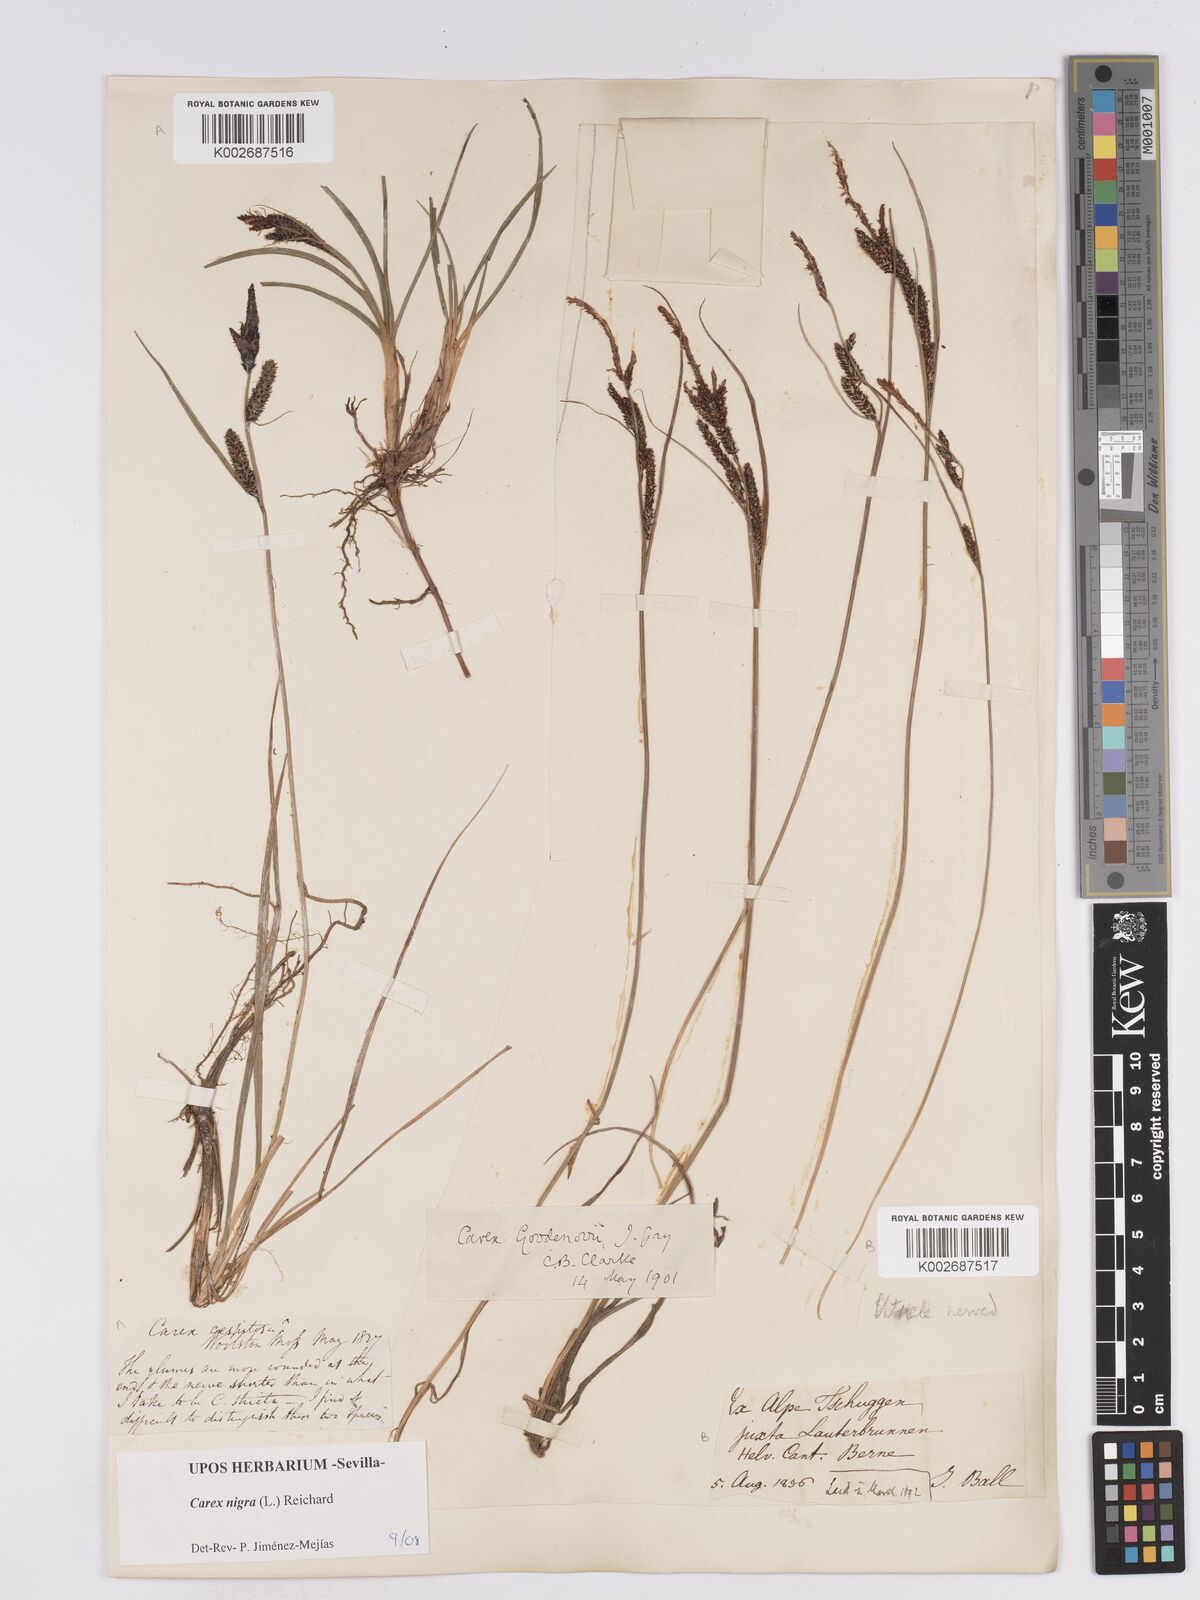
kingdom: Plantae
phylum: Tracheophyta
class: Liliopsida
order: Poales
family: Cyperaceae
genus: Carex
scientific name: Carex nigra
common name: Common sedge
